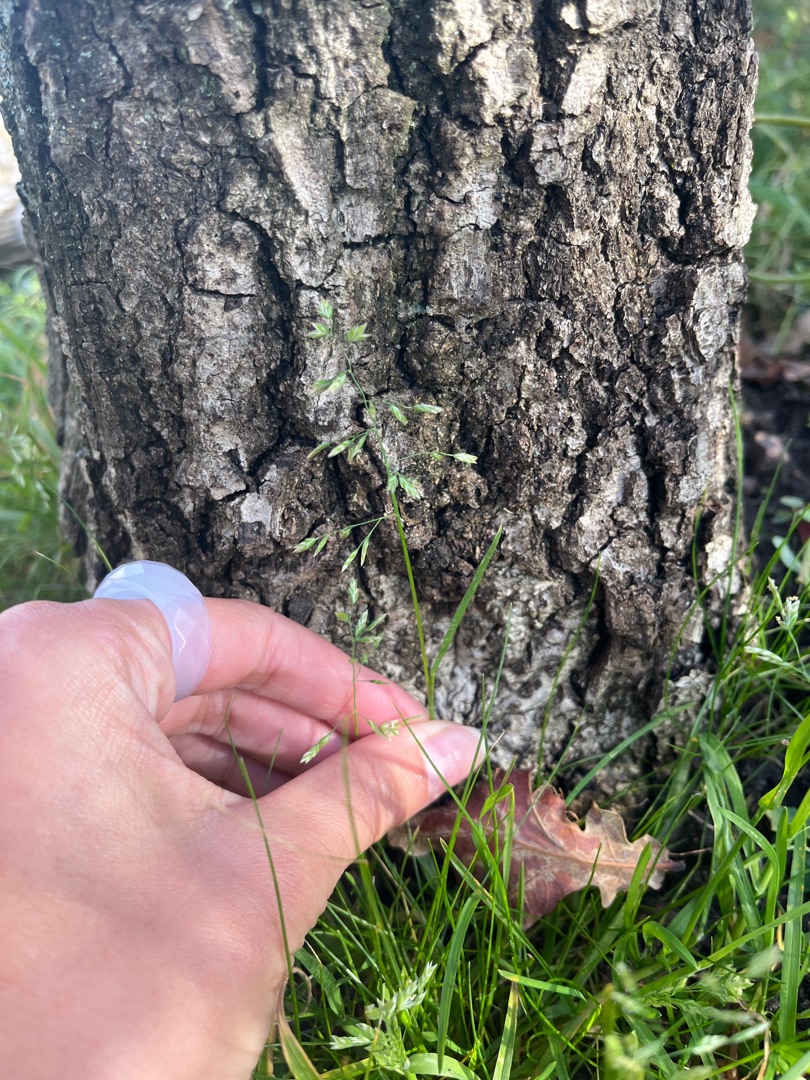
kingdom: Plantae
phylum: Tracheophyta
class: Liliopsida
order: Poales
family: Poaceae
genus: Poa
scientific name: Poa annua
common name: Enårig rapgræs
